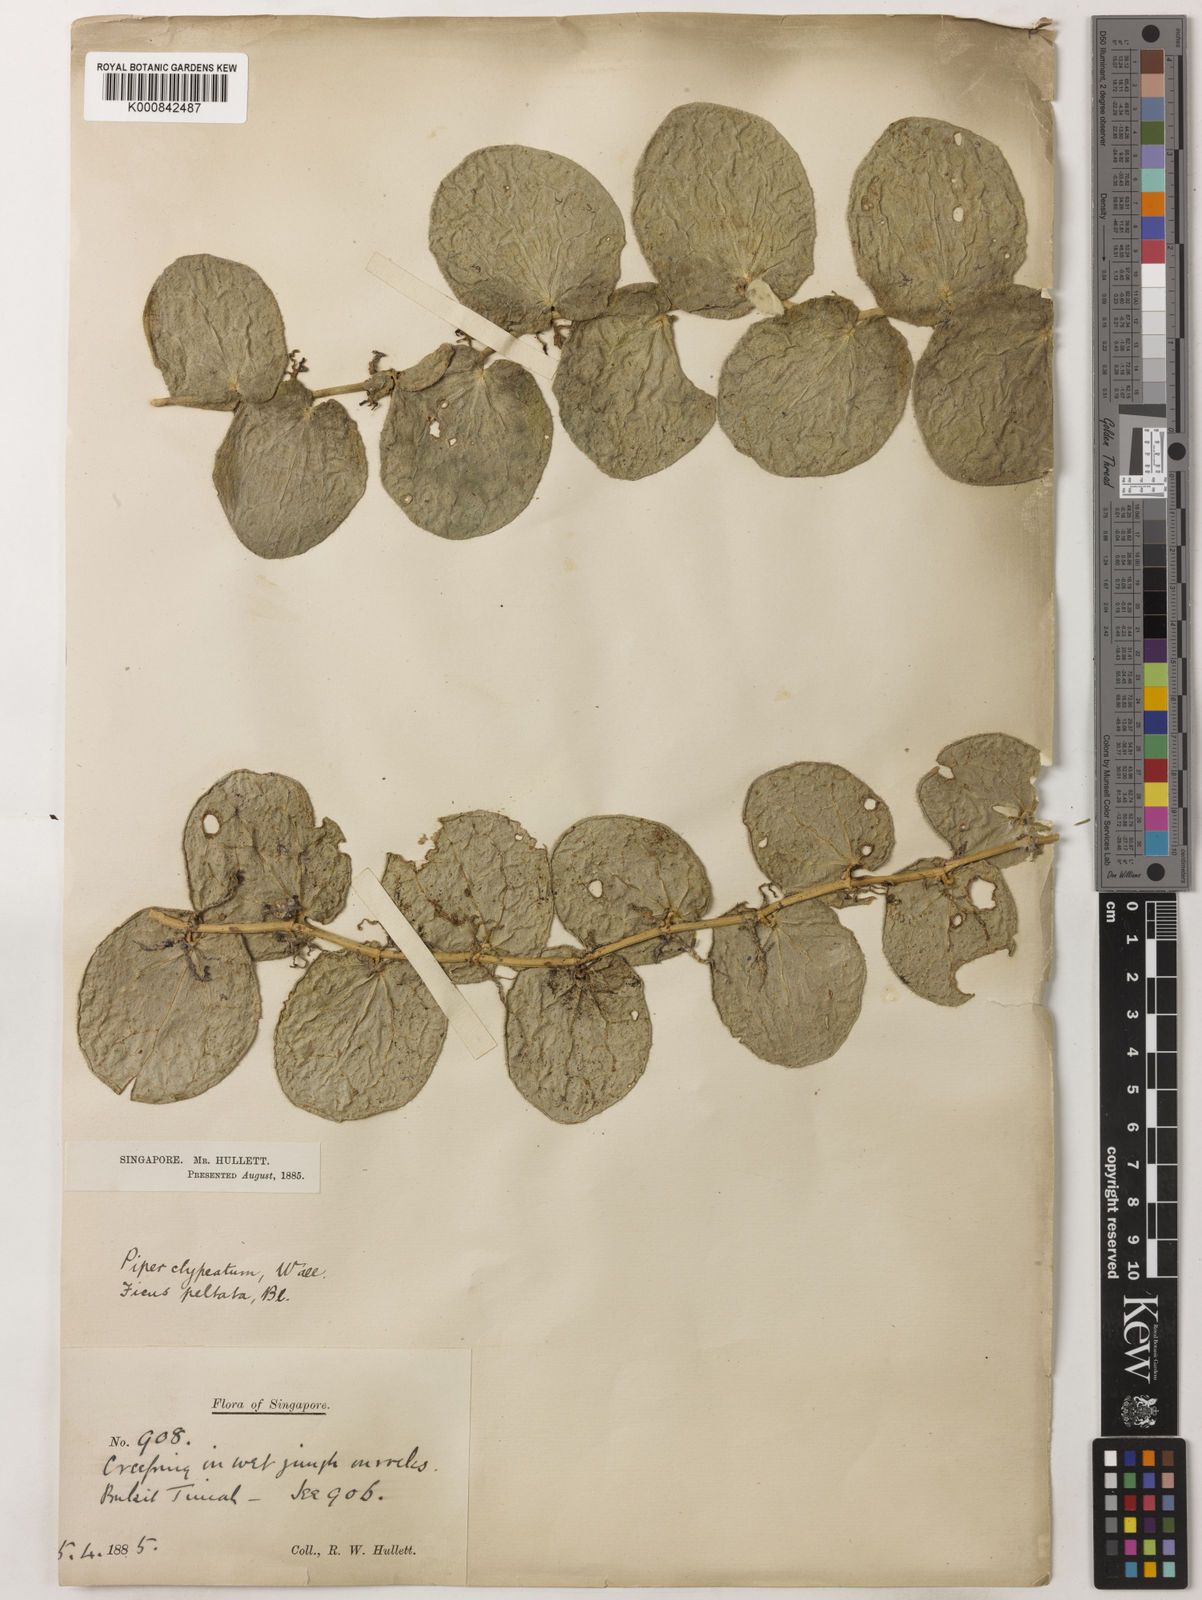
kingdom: Plantae
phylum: Tracheophyta
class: Magnoliopsida
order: Piperales
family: Piperaceae
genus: Piper
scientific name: Piper
